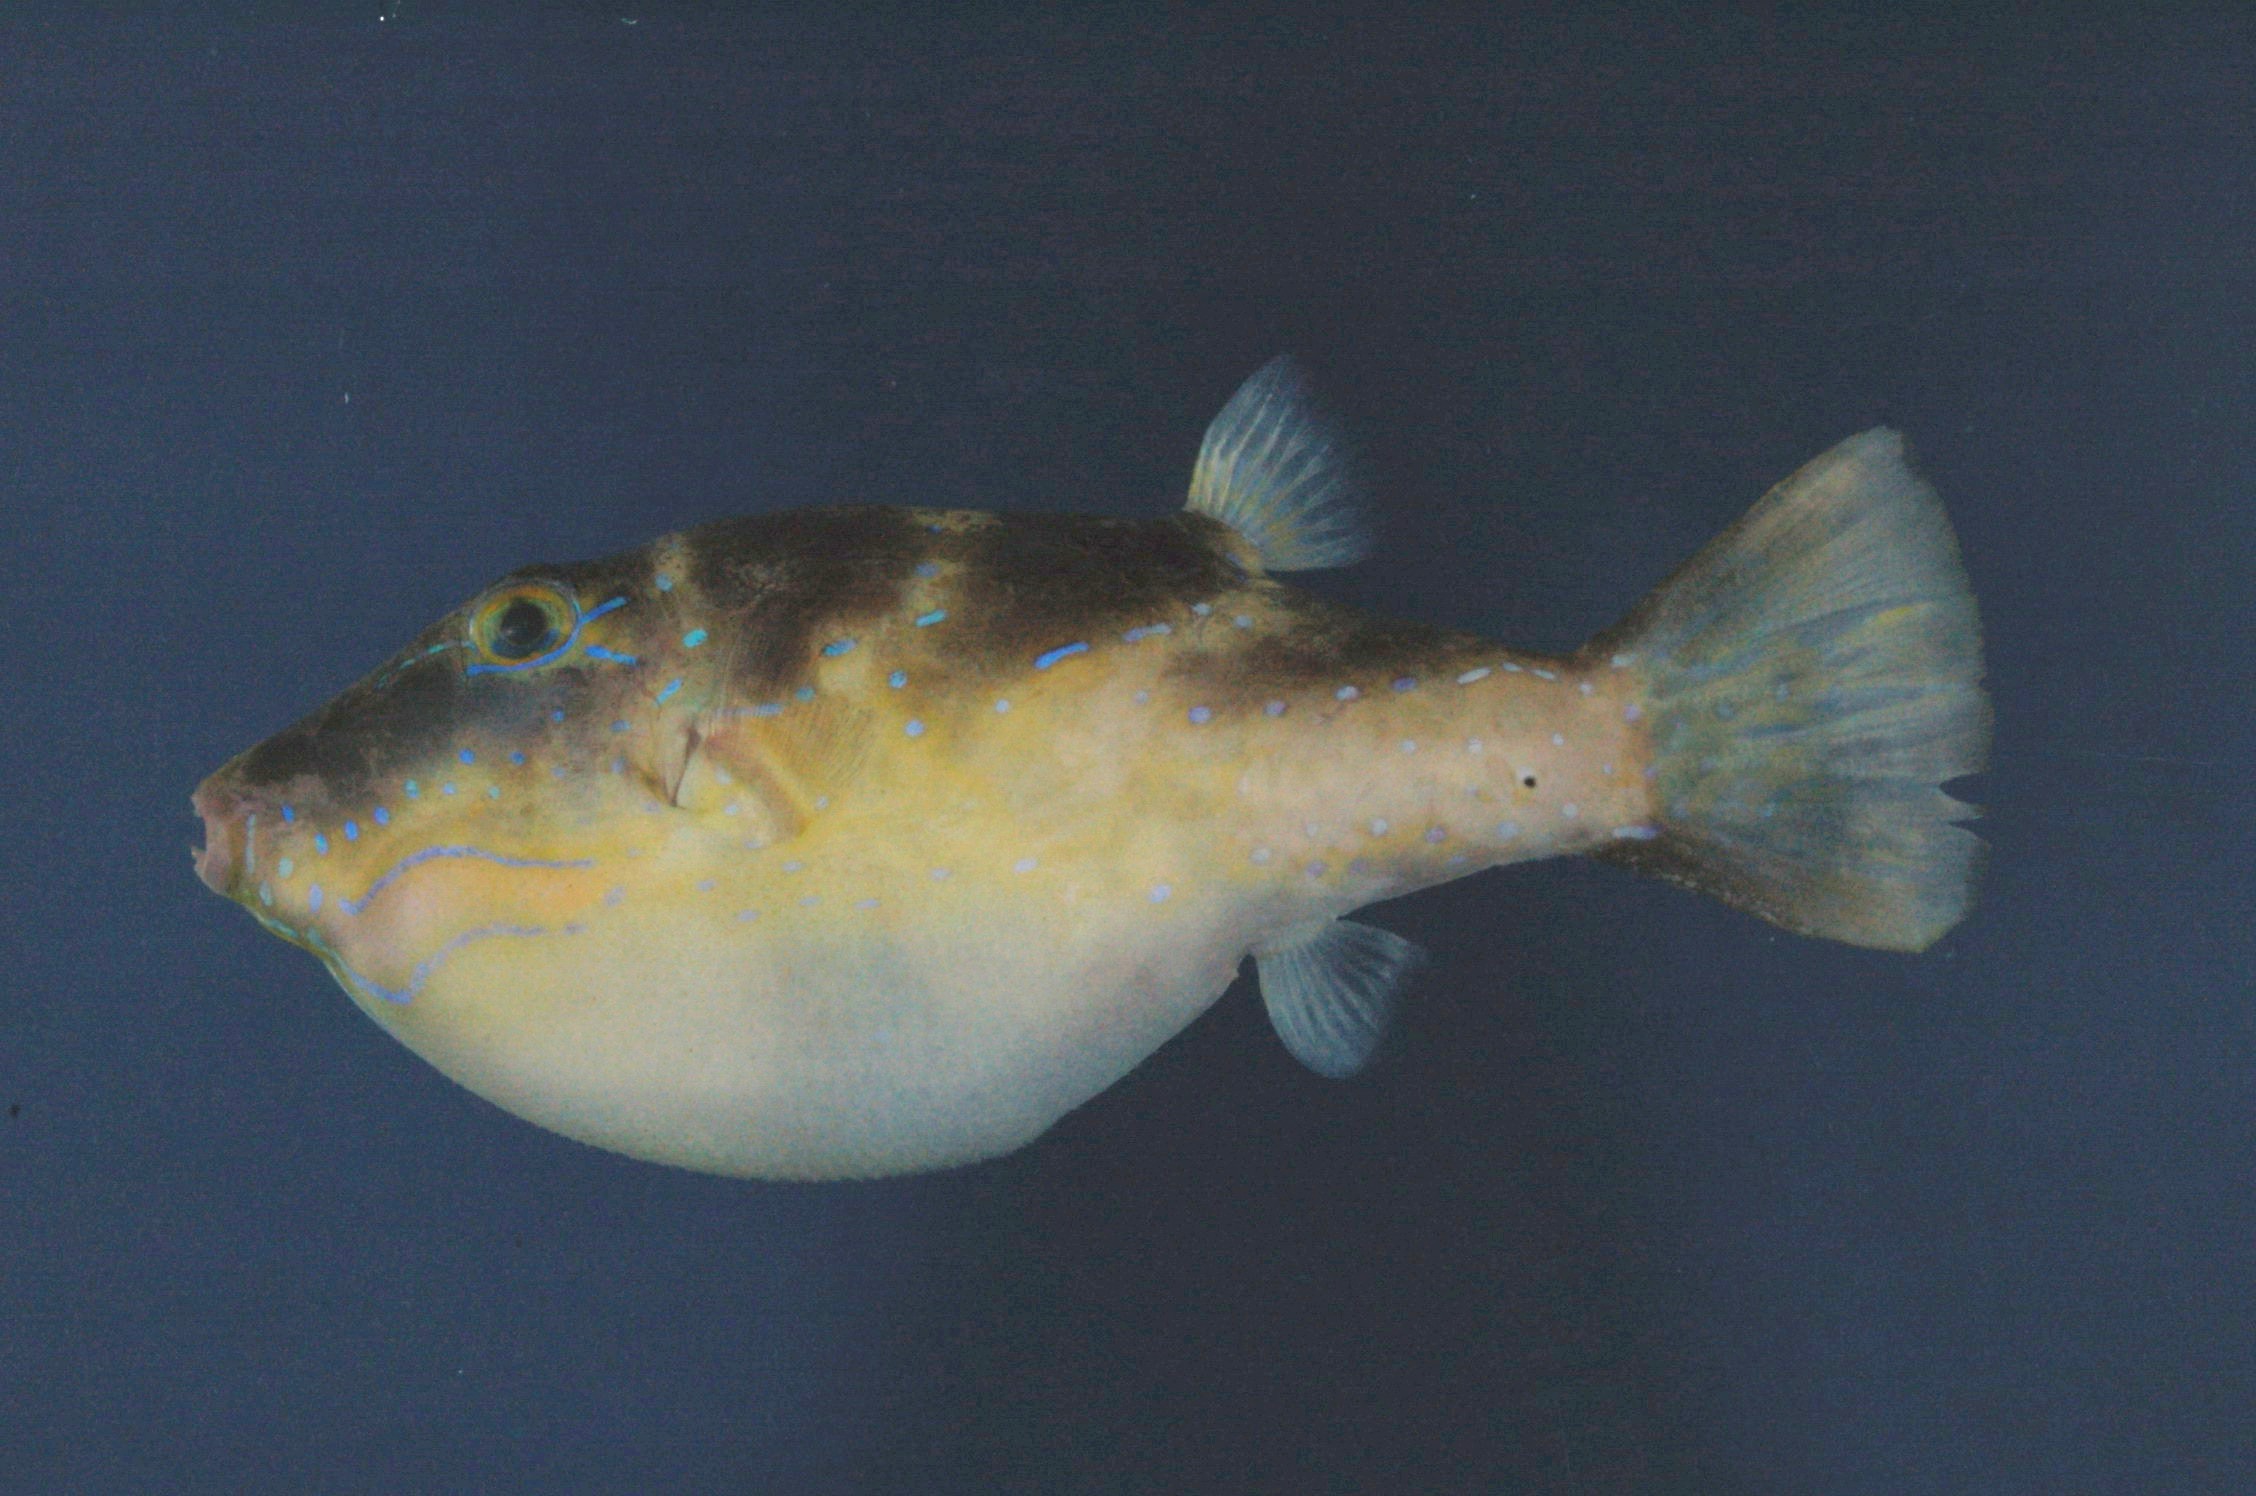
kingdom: Animalia
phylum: Chordata
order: Tetraodontiformes
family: Tetraodontidae
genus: Canthigaster
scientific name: Canthigaster cyanospilota
